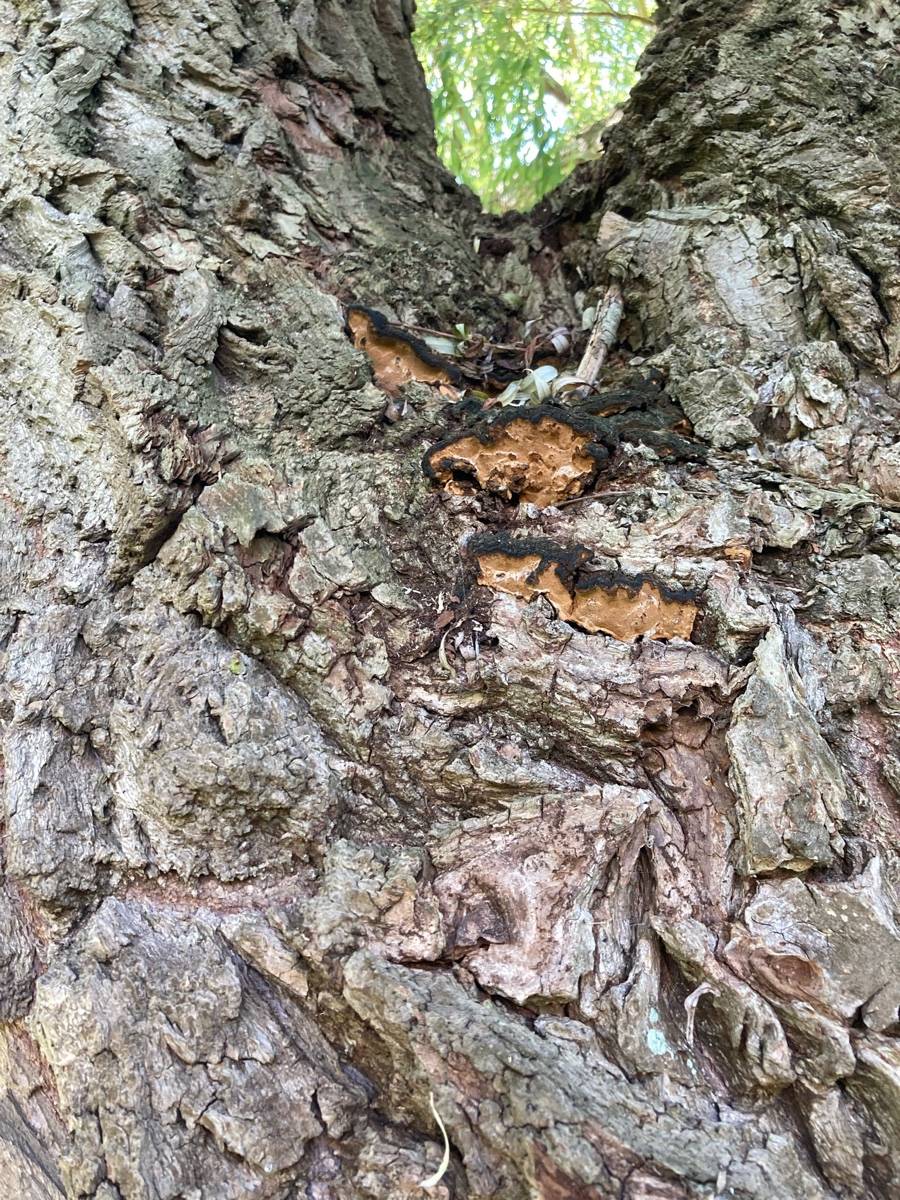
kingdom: Fungi
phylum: Basidiomycota
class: Agaricomycetes
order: Hymenochaetales
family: Hymenochaetaceae
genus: Phellinopsis
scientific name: Phellinopsis conchata
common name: pile-ildporesvamp
